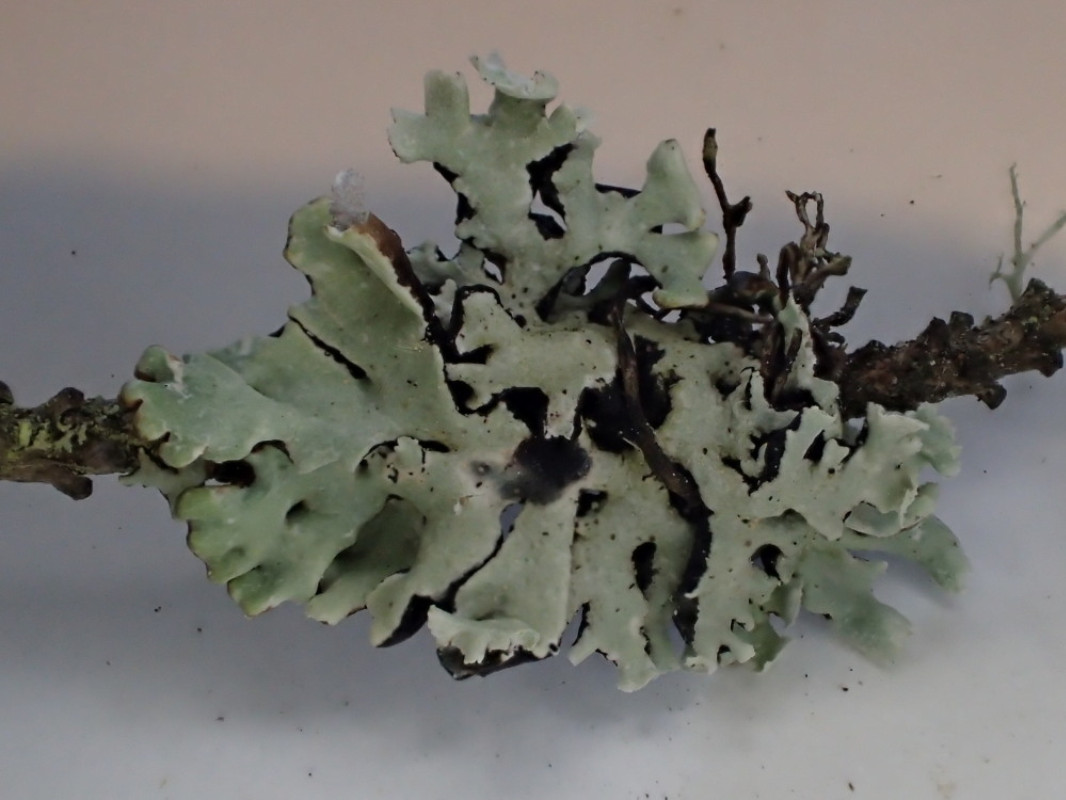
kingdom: Fungi
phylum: Ascomycota
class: Lecanoromycetes
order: Lecanorales
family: Parmeliaceae
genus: Hypogymnia
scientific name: Hypogymnia physodes
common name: almindelig kvistlav
